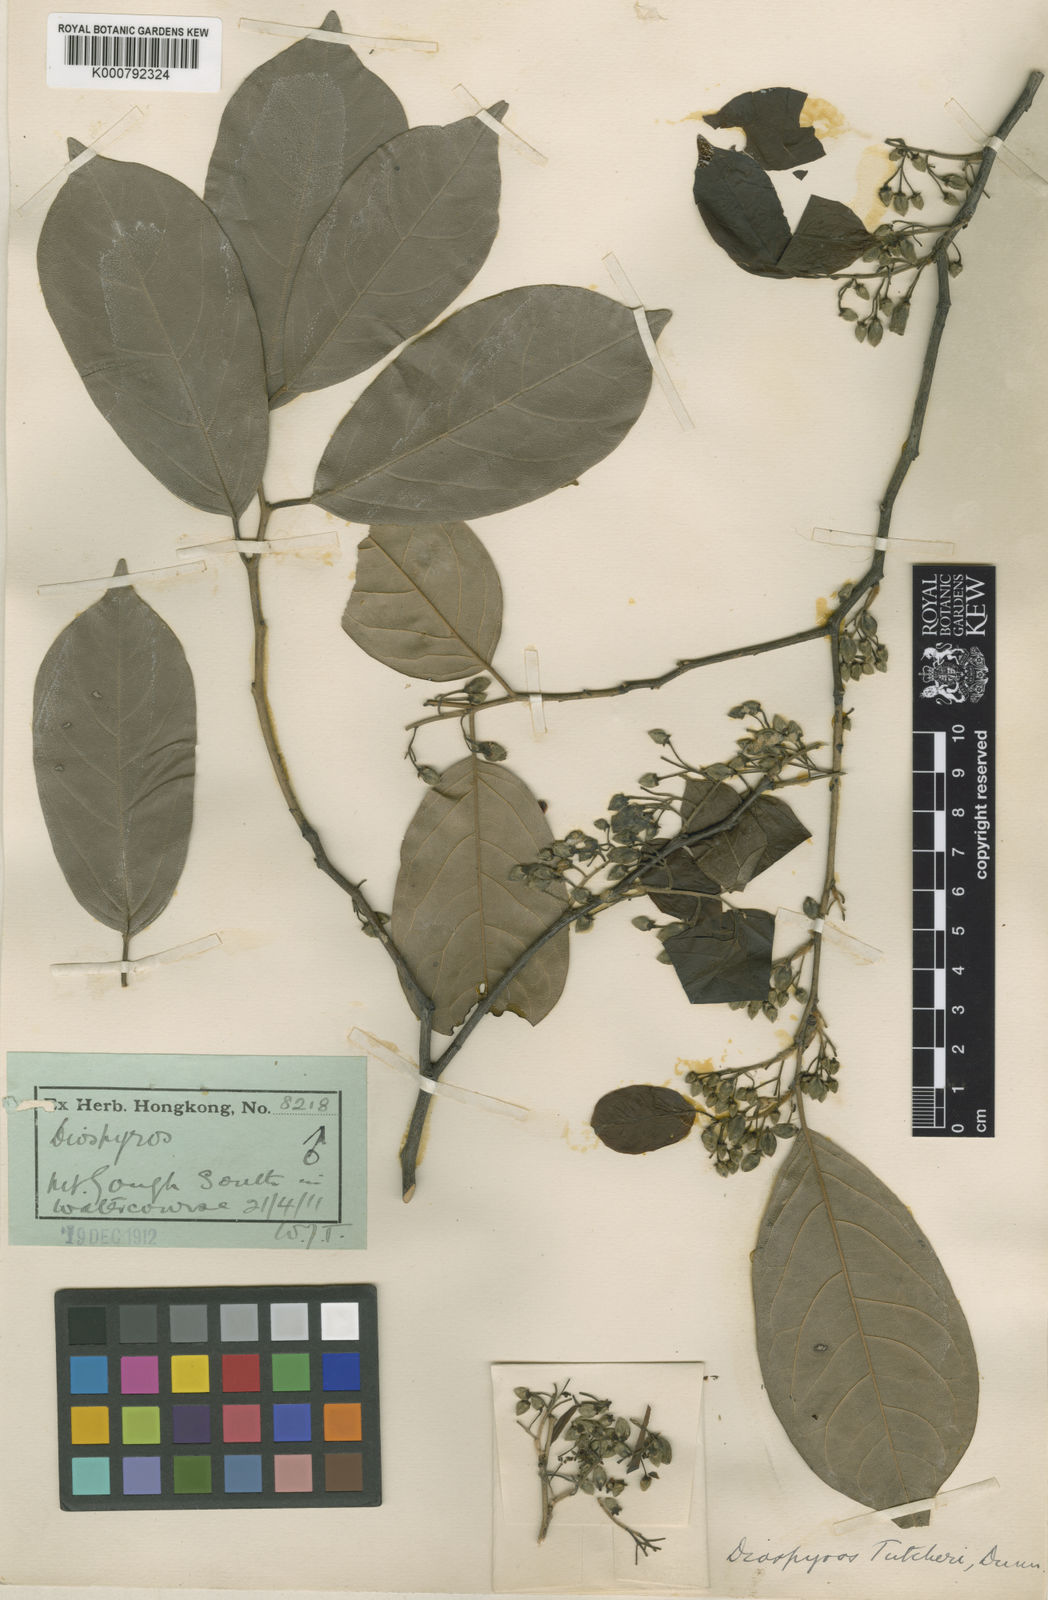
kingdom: Plantae
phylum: Tracheophyta
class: Magnoliopsida
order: Ericales
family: Ebenaceae
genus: Diospyros
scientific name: Diospyros tutcheri
